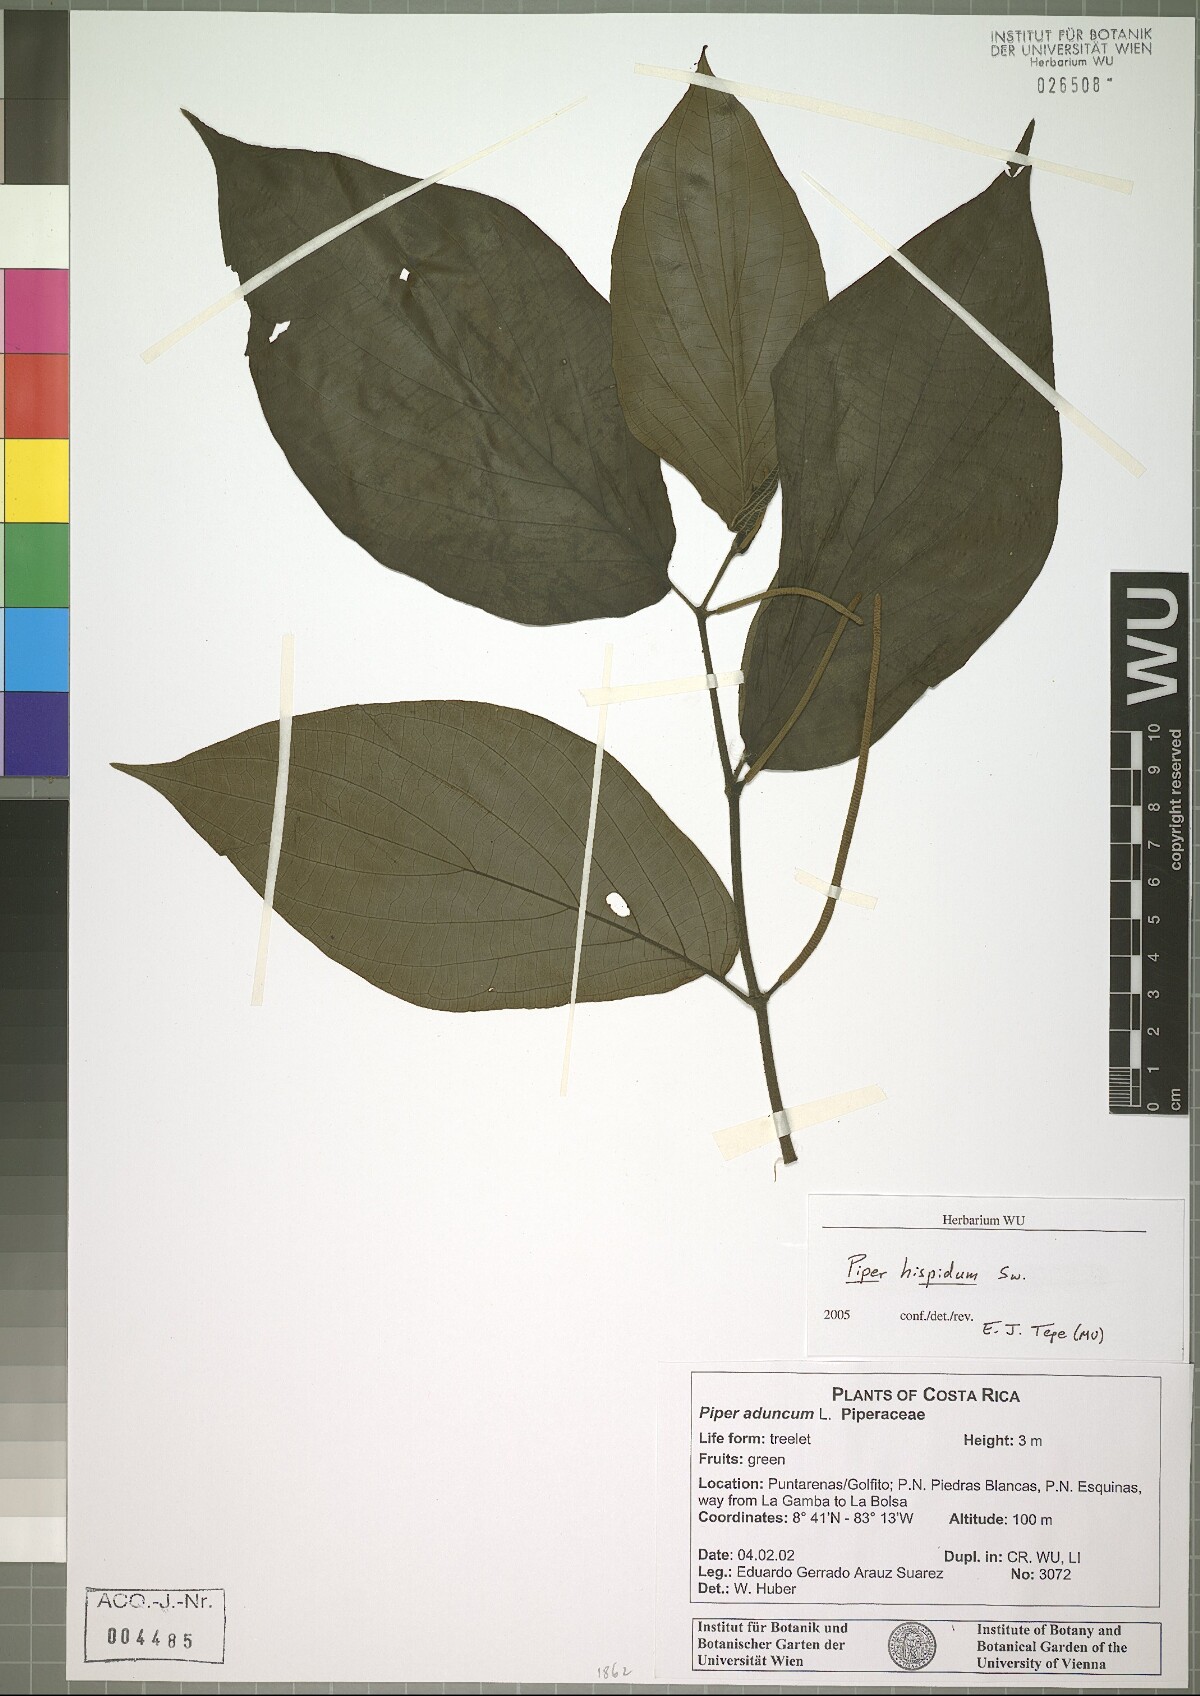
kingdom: Plantae
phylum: Tracheophyta
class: Magnoliopsida
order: Piperales
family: Piperaceae
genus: Piper
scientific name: Piper hispidum
